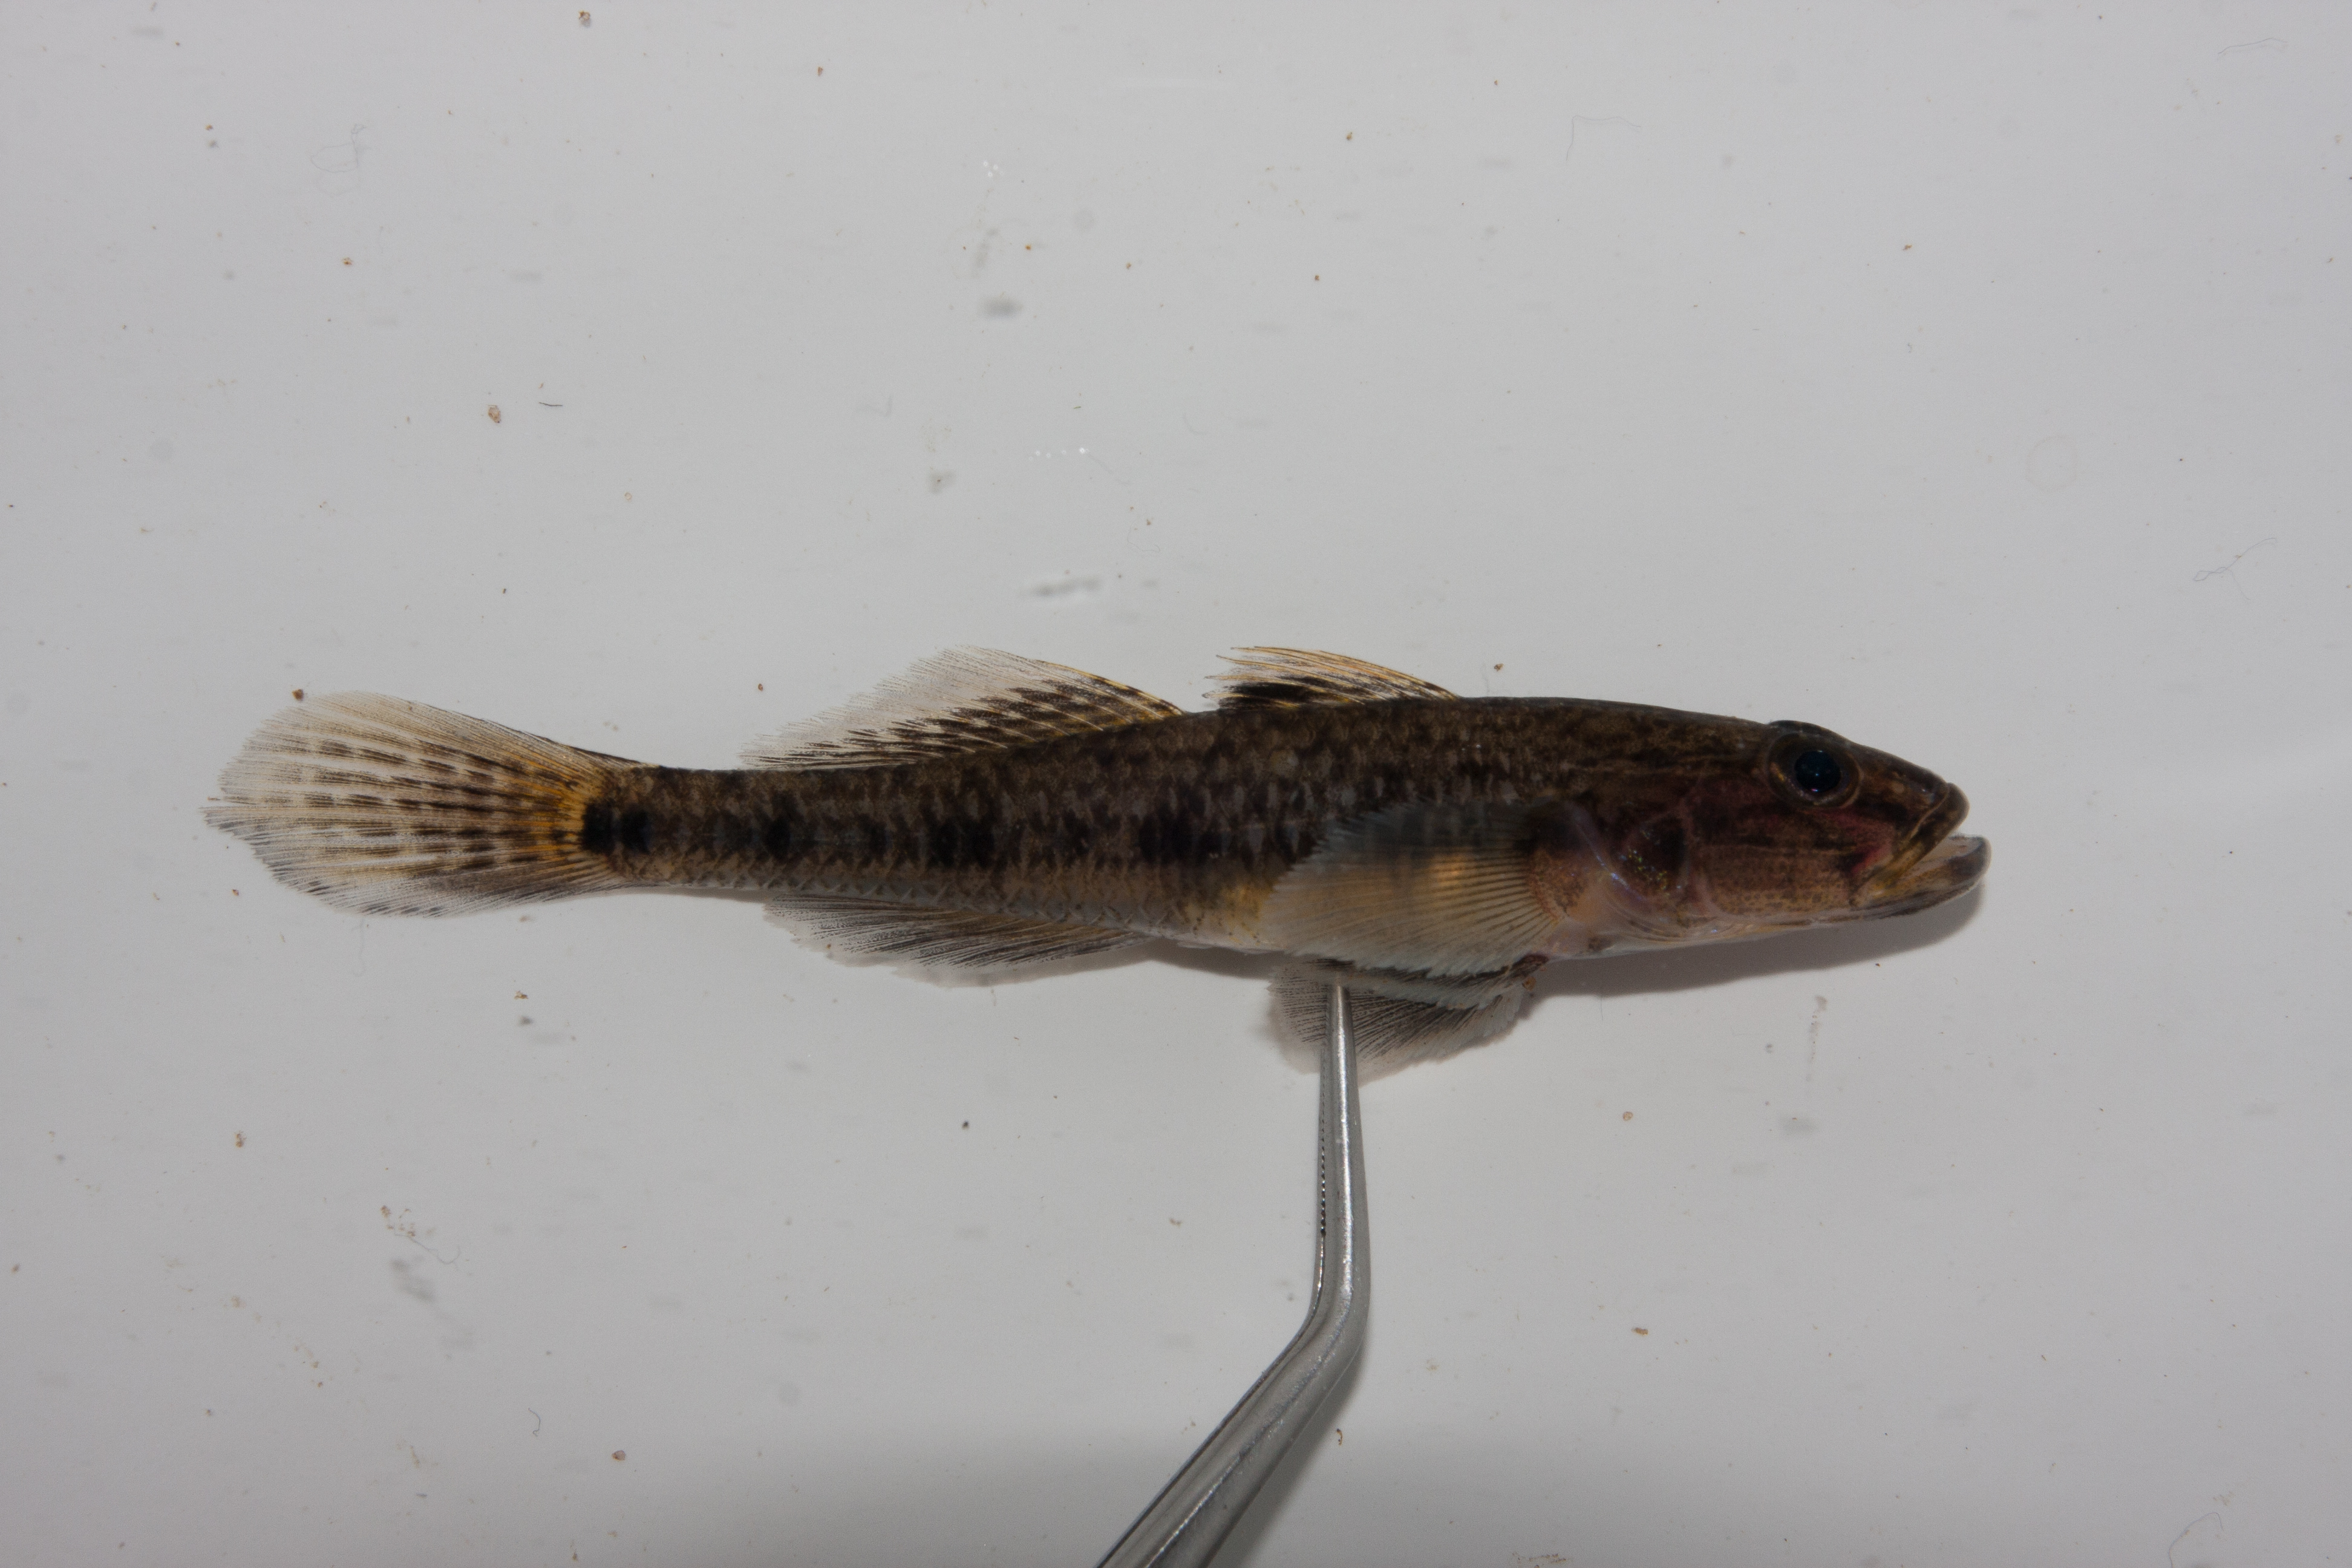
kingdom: Animalia
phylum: Chordata
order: Perciformes
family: Gobiidae
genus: Glossogobius
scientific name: Glossogobius callidus
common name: River goby
